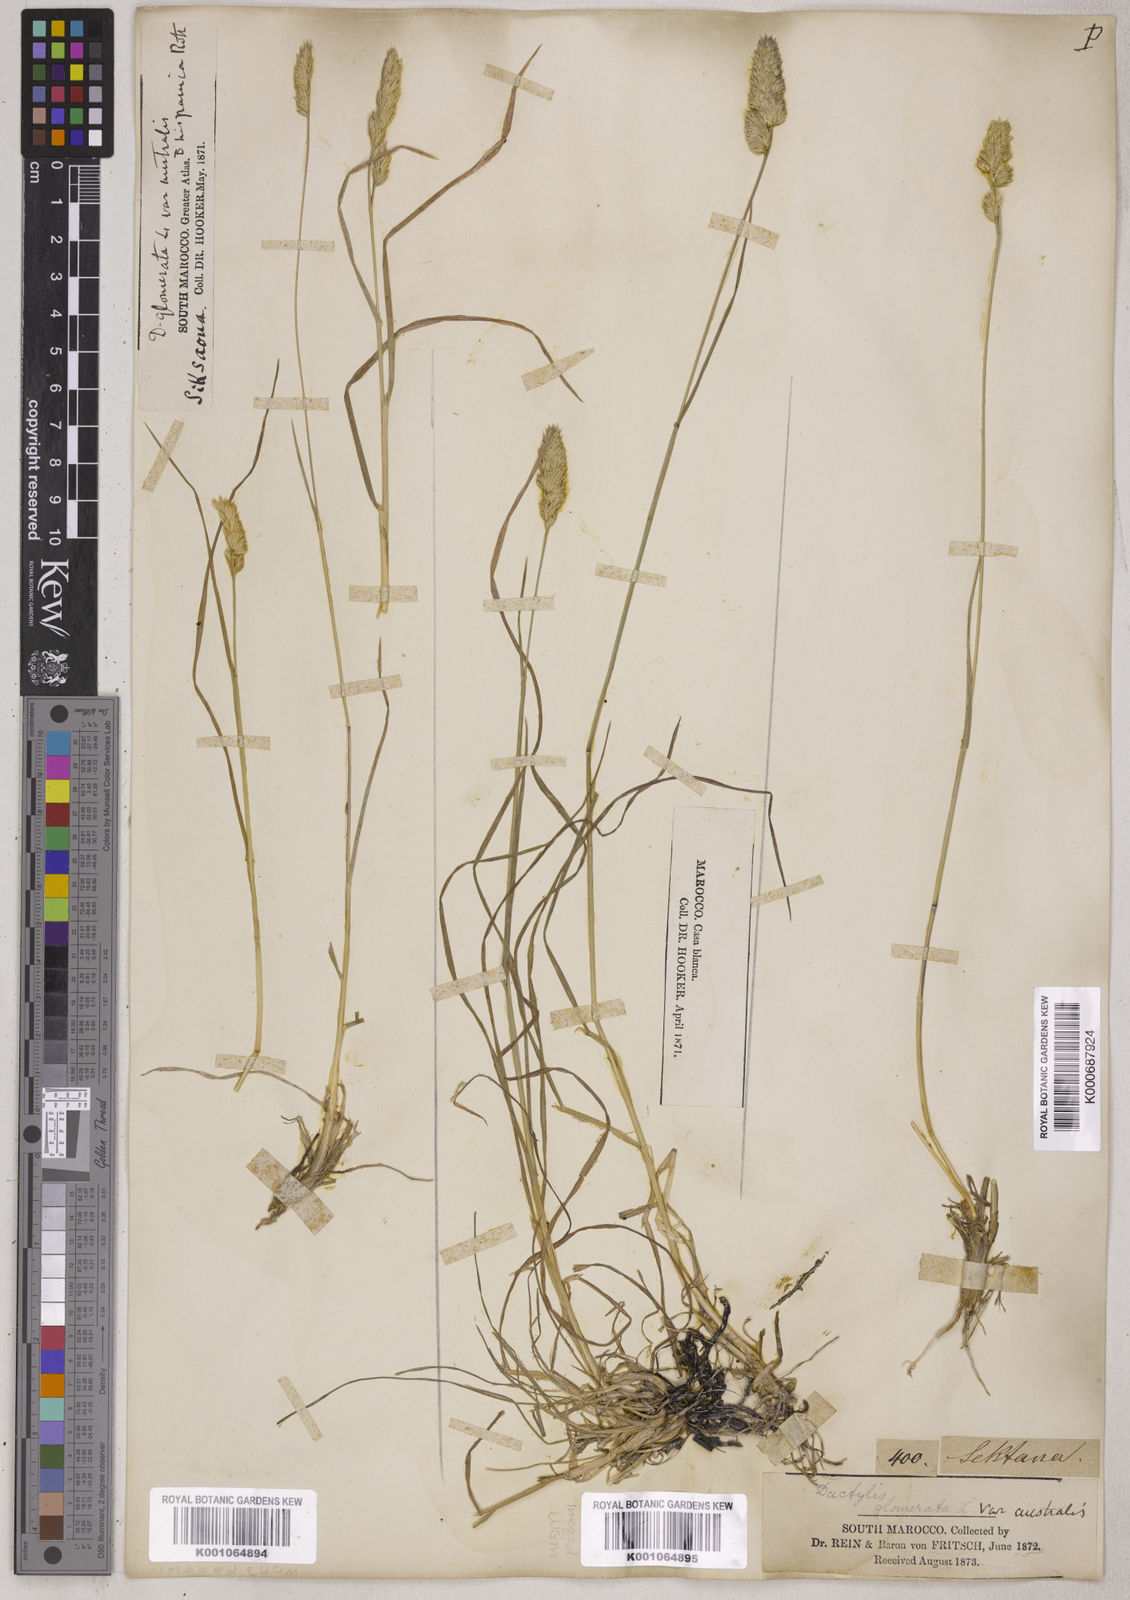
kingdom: Plantae
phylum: Tracheophyta
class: Liliopsida
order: Poales
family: Poaceae
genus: Dactylis
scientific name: Dactylis glomerata
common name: Orchardgrass
